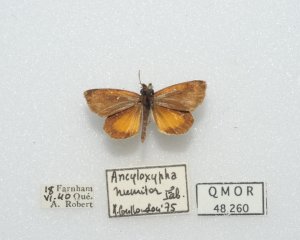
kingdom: Animalia
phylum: Arthropoda
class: Insecta
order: Lepidoptera
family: Hesperiidae
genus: Ancyloxypha
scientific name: Ancyloxypha numitor
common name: Least Skipper
